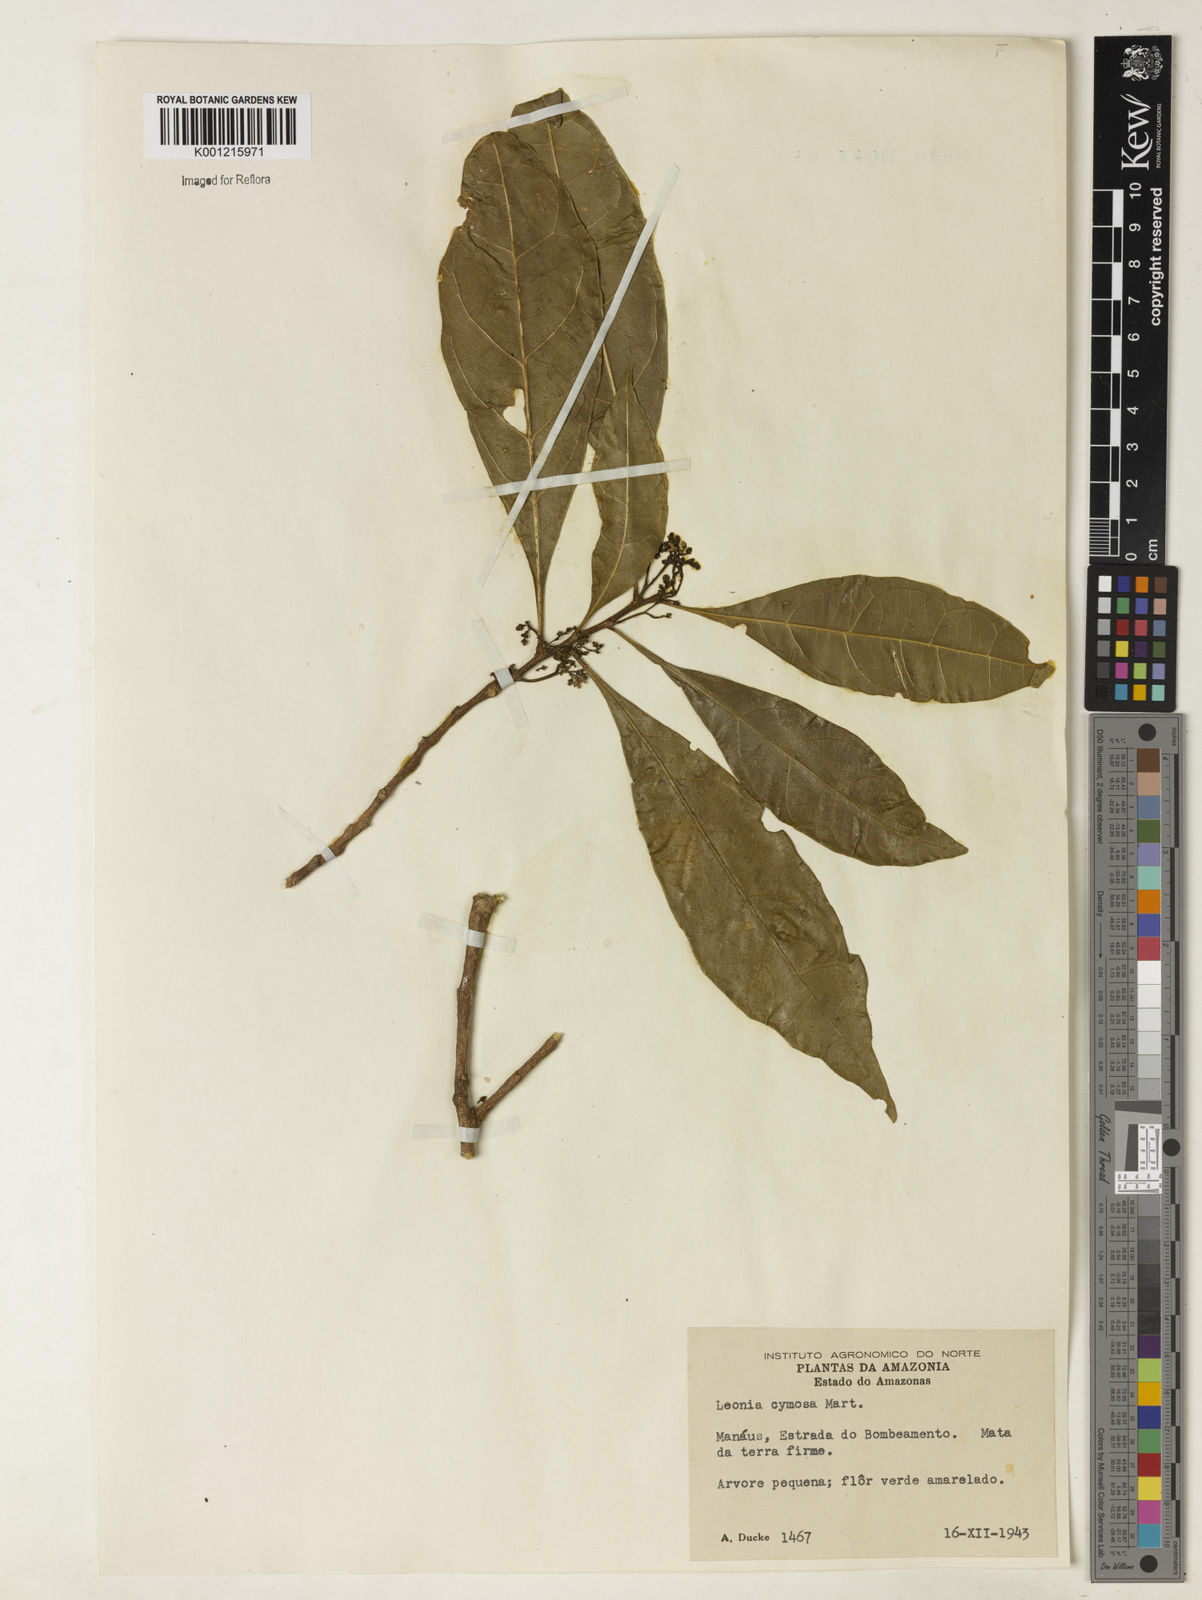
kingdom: Plantae
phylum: Tracheophyta
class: Magnoliopsida
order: Malpighiales
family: Violaceae
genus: Leonia
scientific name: Leonia cymosa
